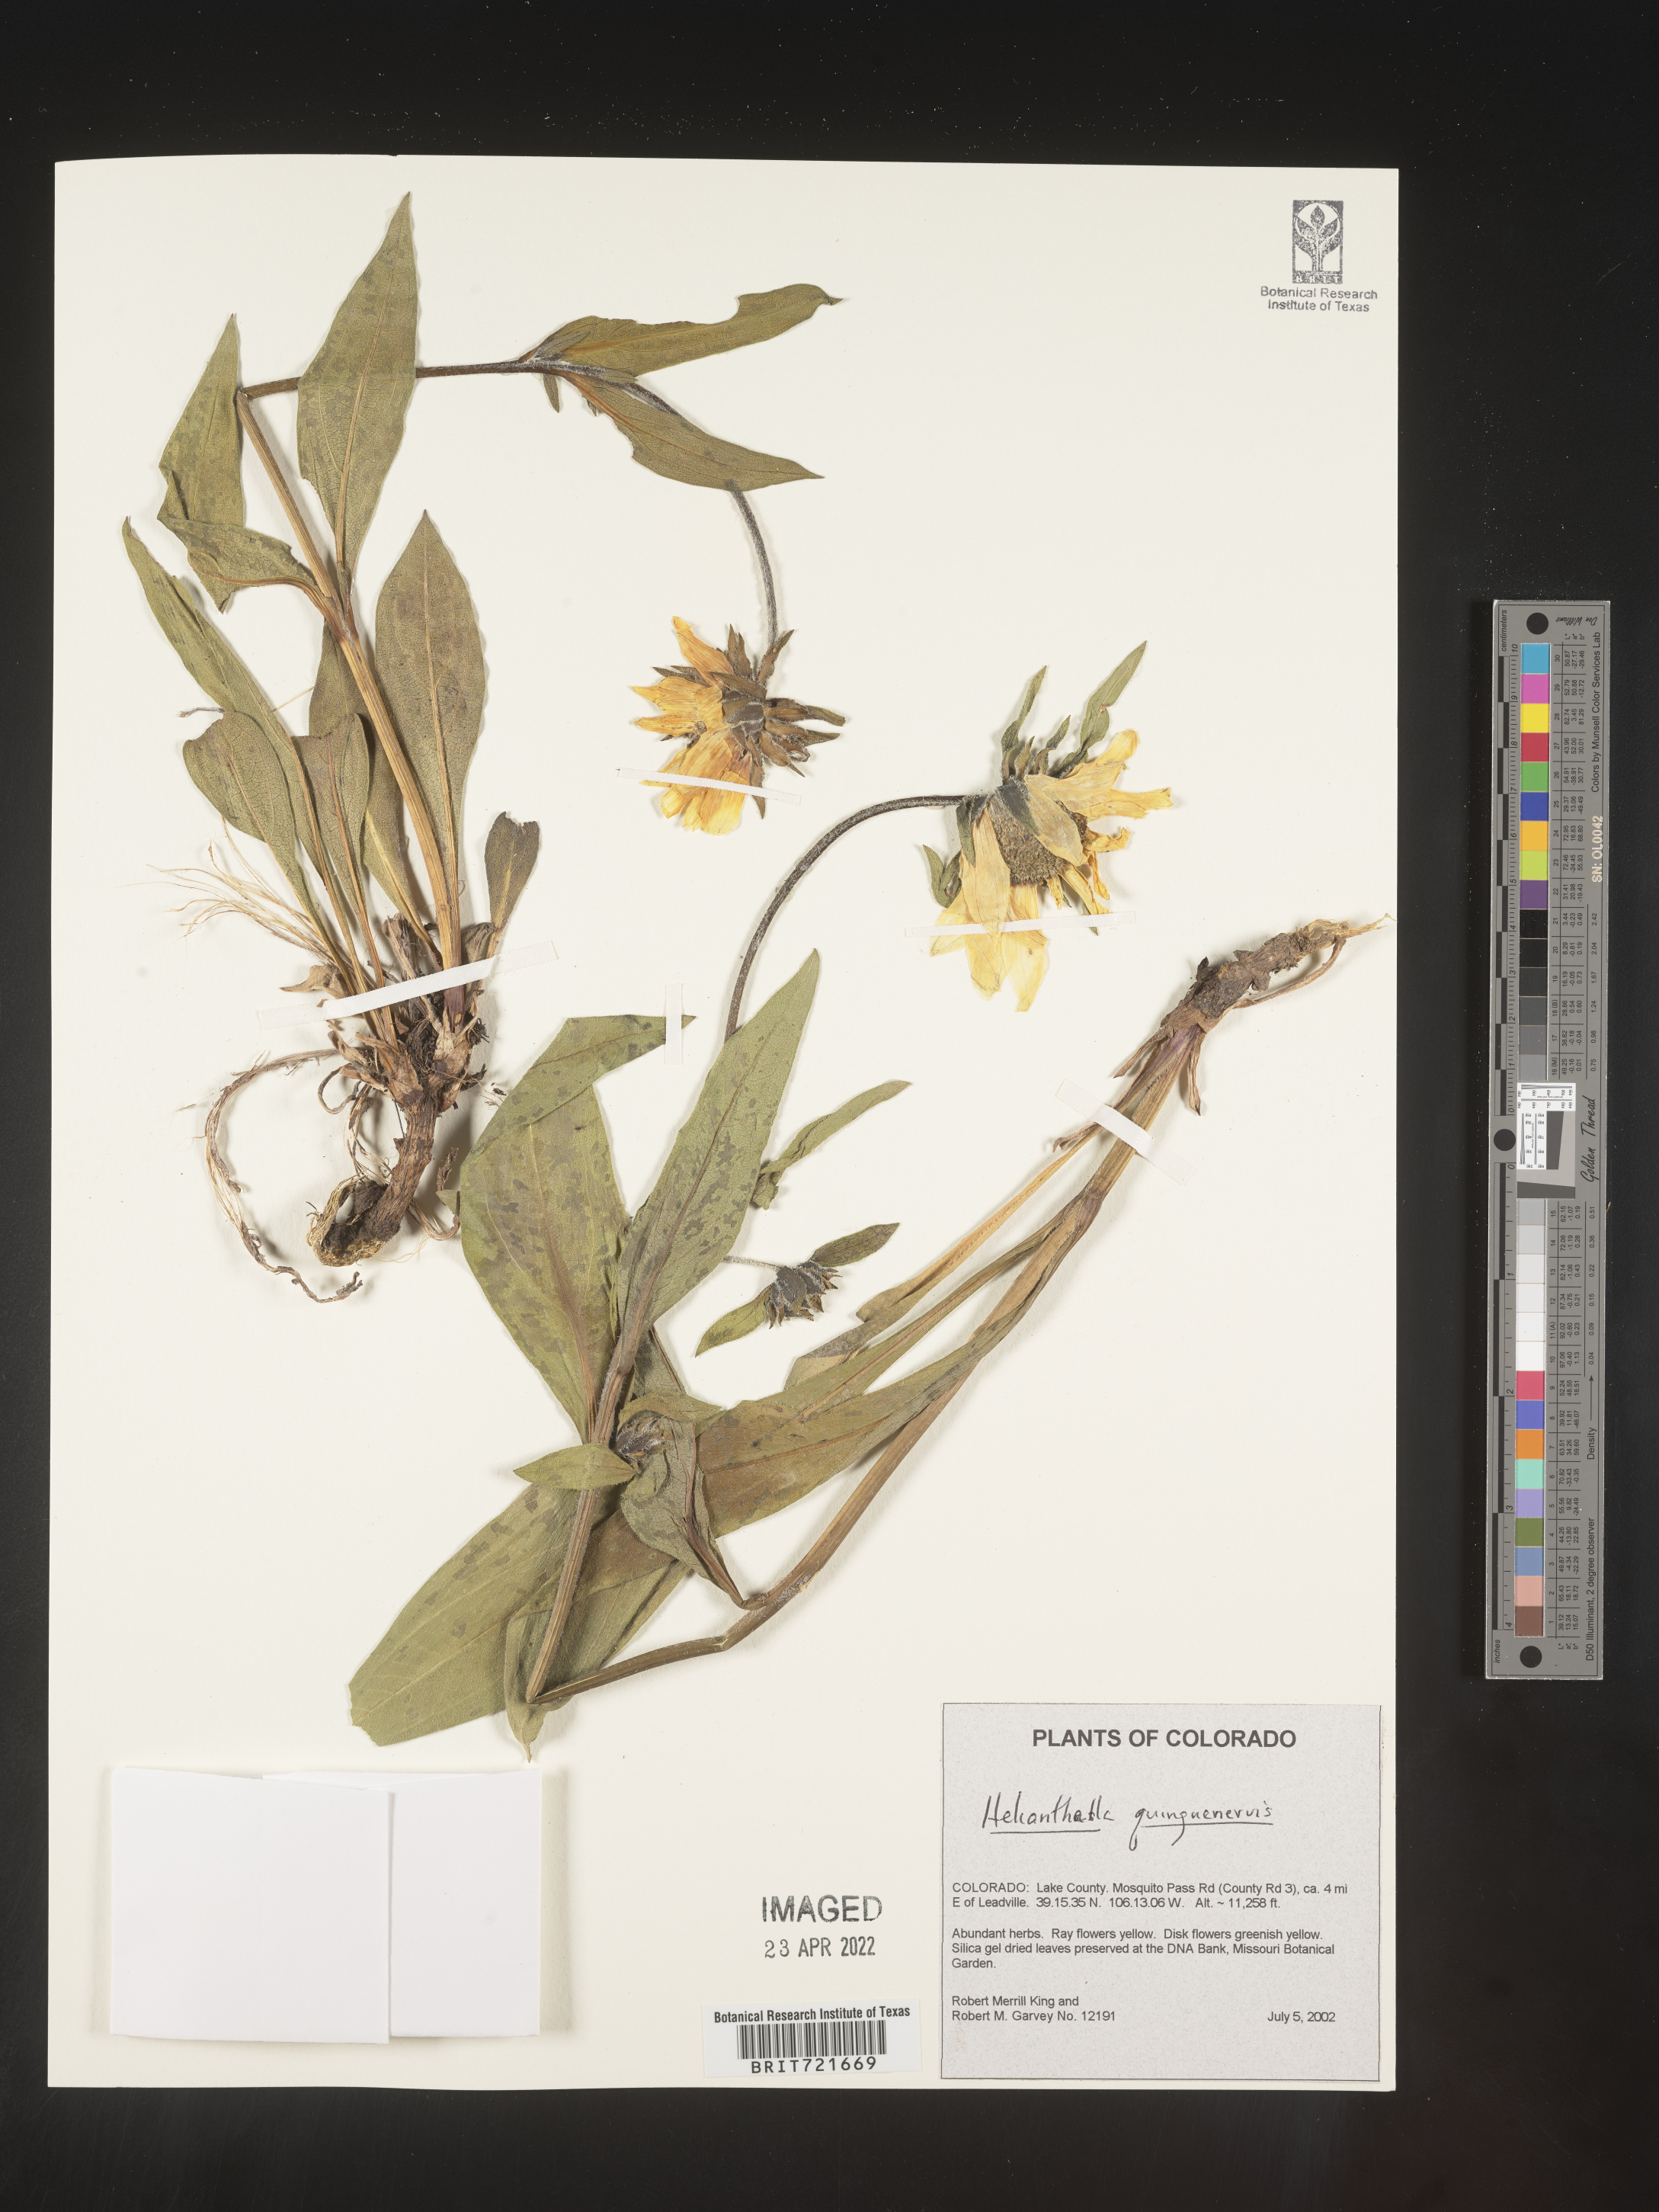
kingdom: Plantae
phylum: Tracheophyta
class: Magnoliopsida
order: Asterales
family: Asteraceae
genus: Helianthella
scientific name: Helianthella quinquenervis
